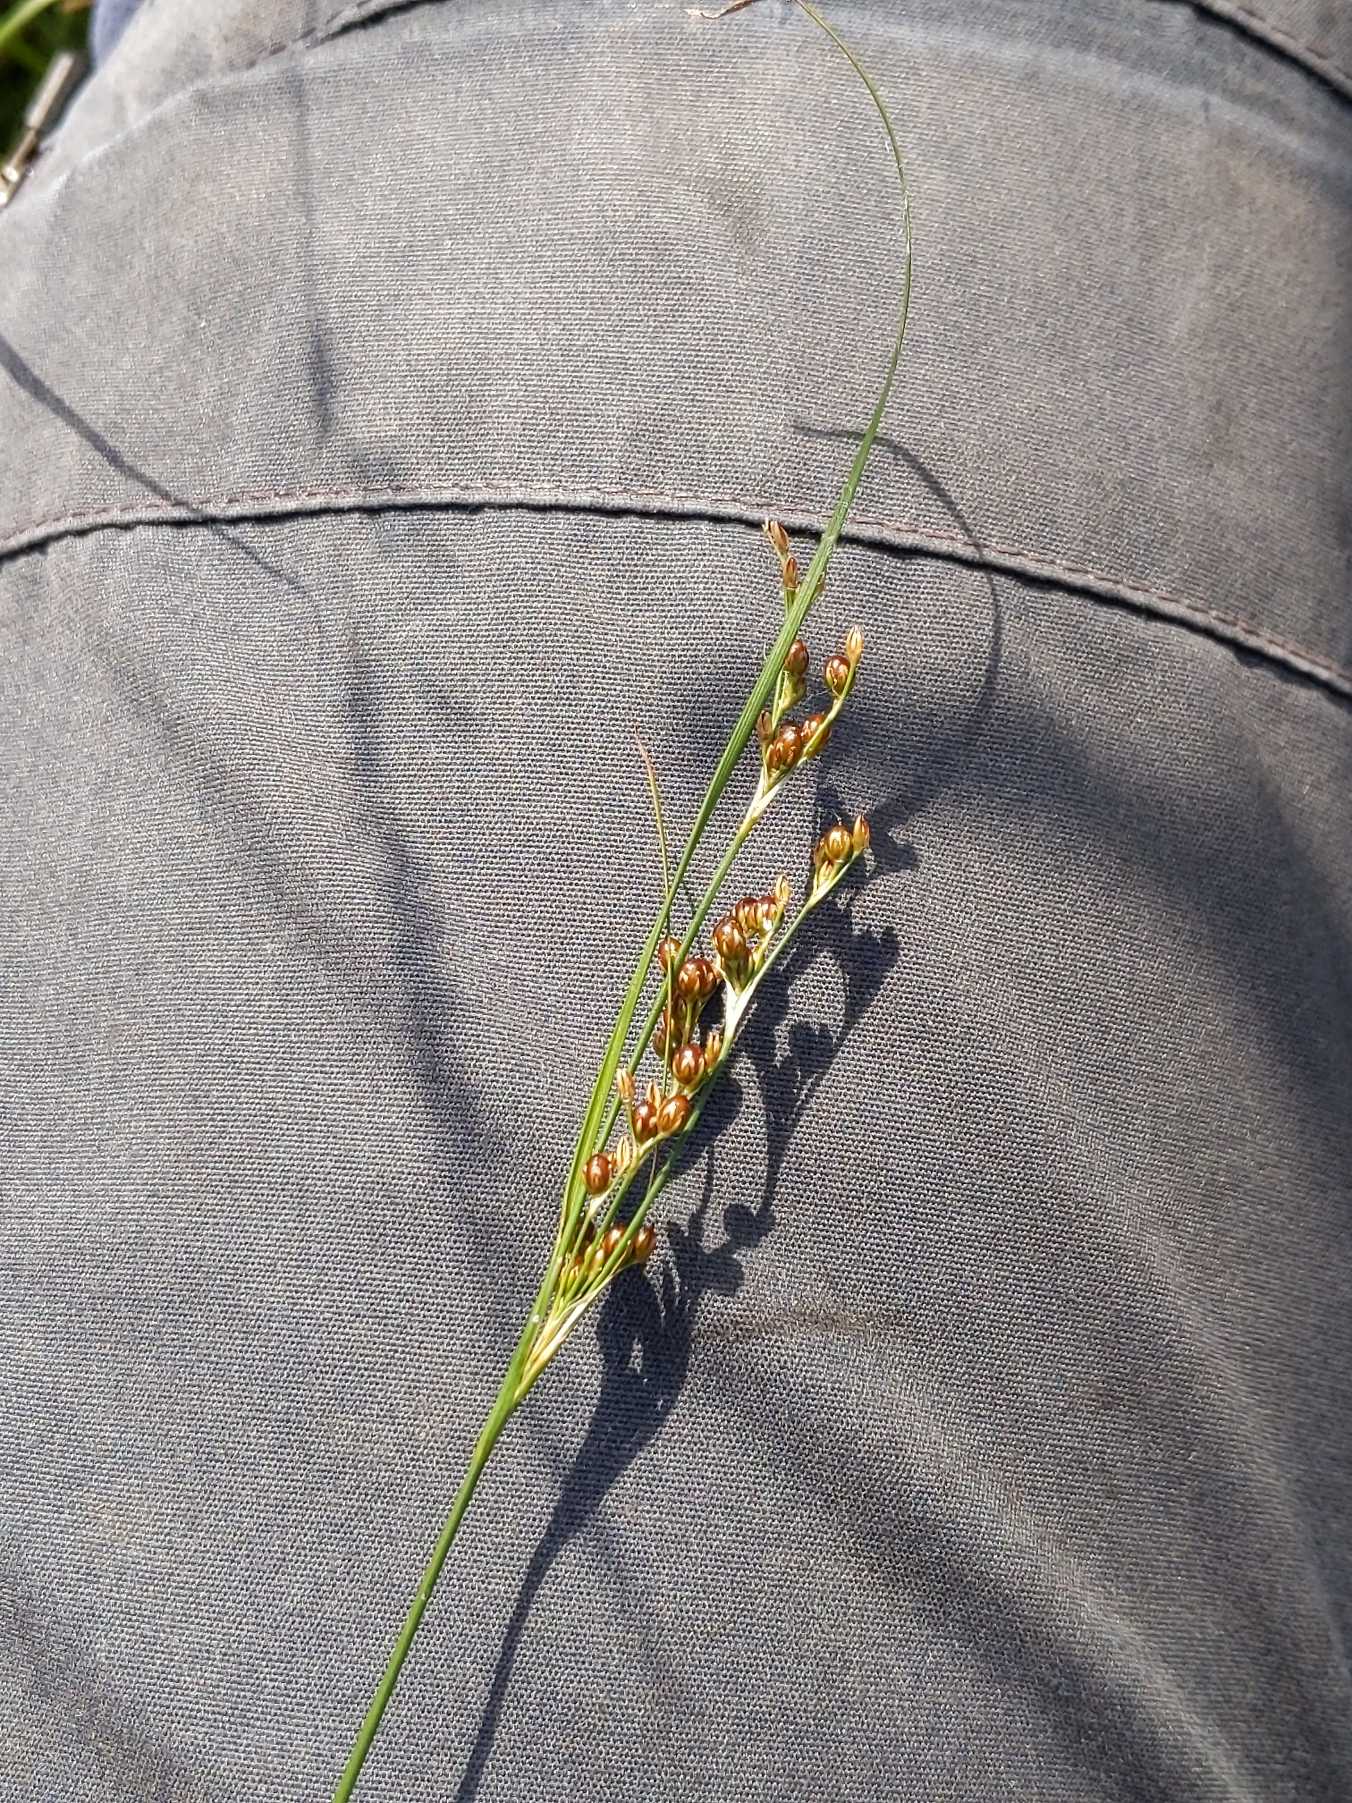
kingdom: Plantae
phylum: Tracheophyta
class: Liliopsida
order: Poales
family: Juncaceae
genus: Juncus
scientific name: Juncus compressus
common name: Fladstrået siv
